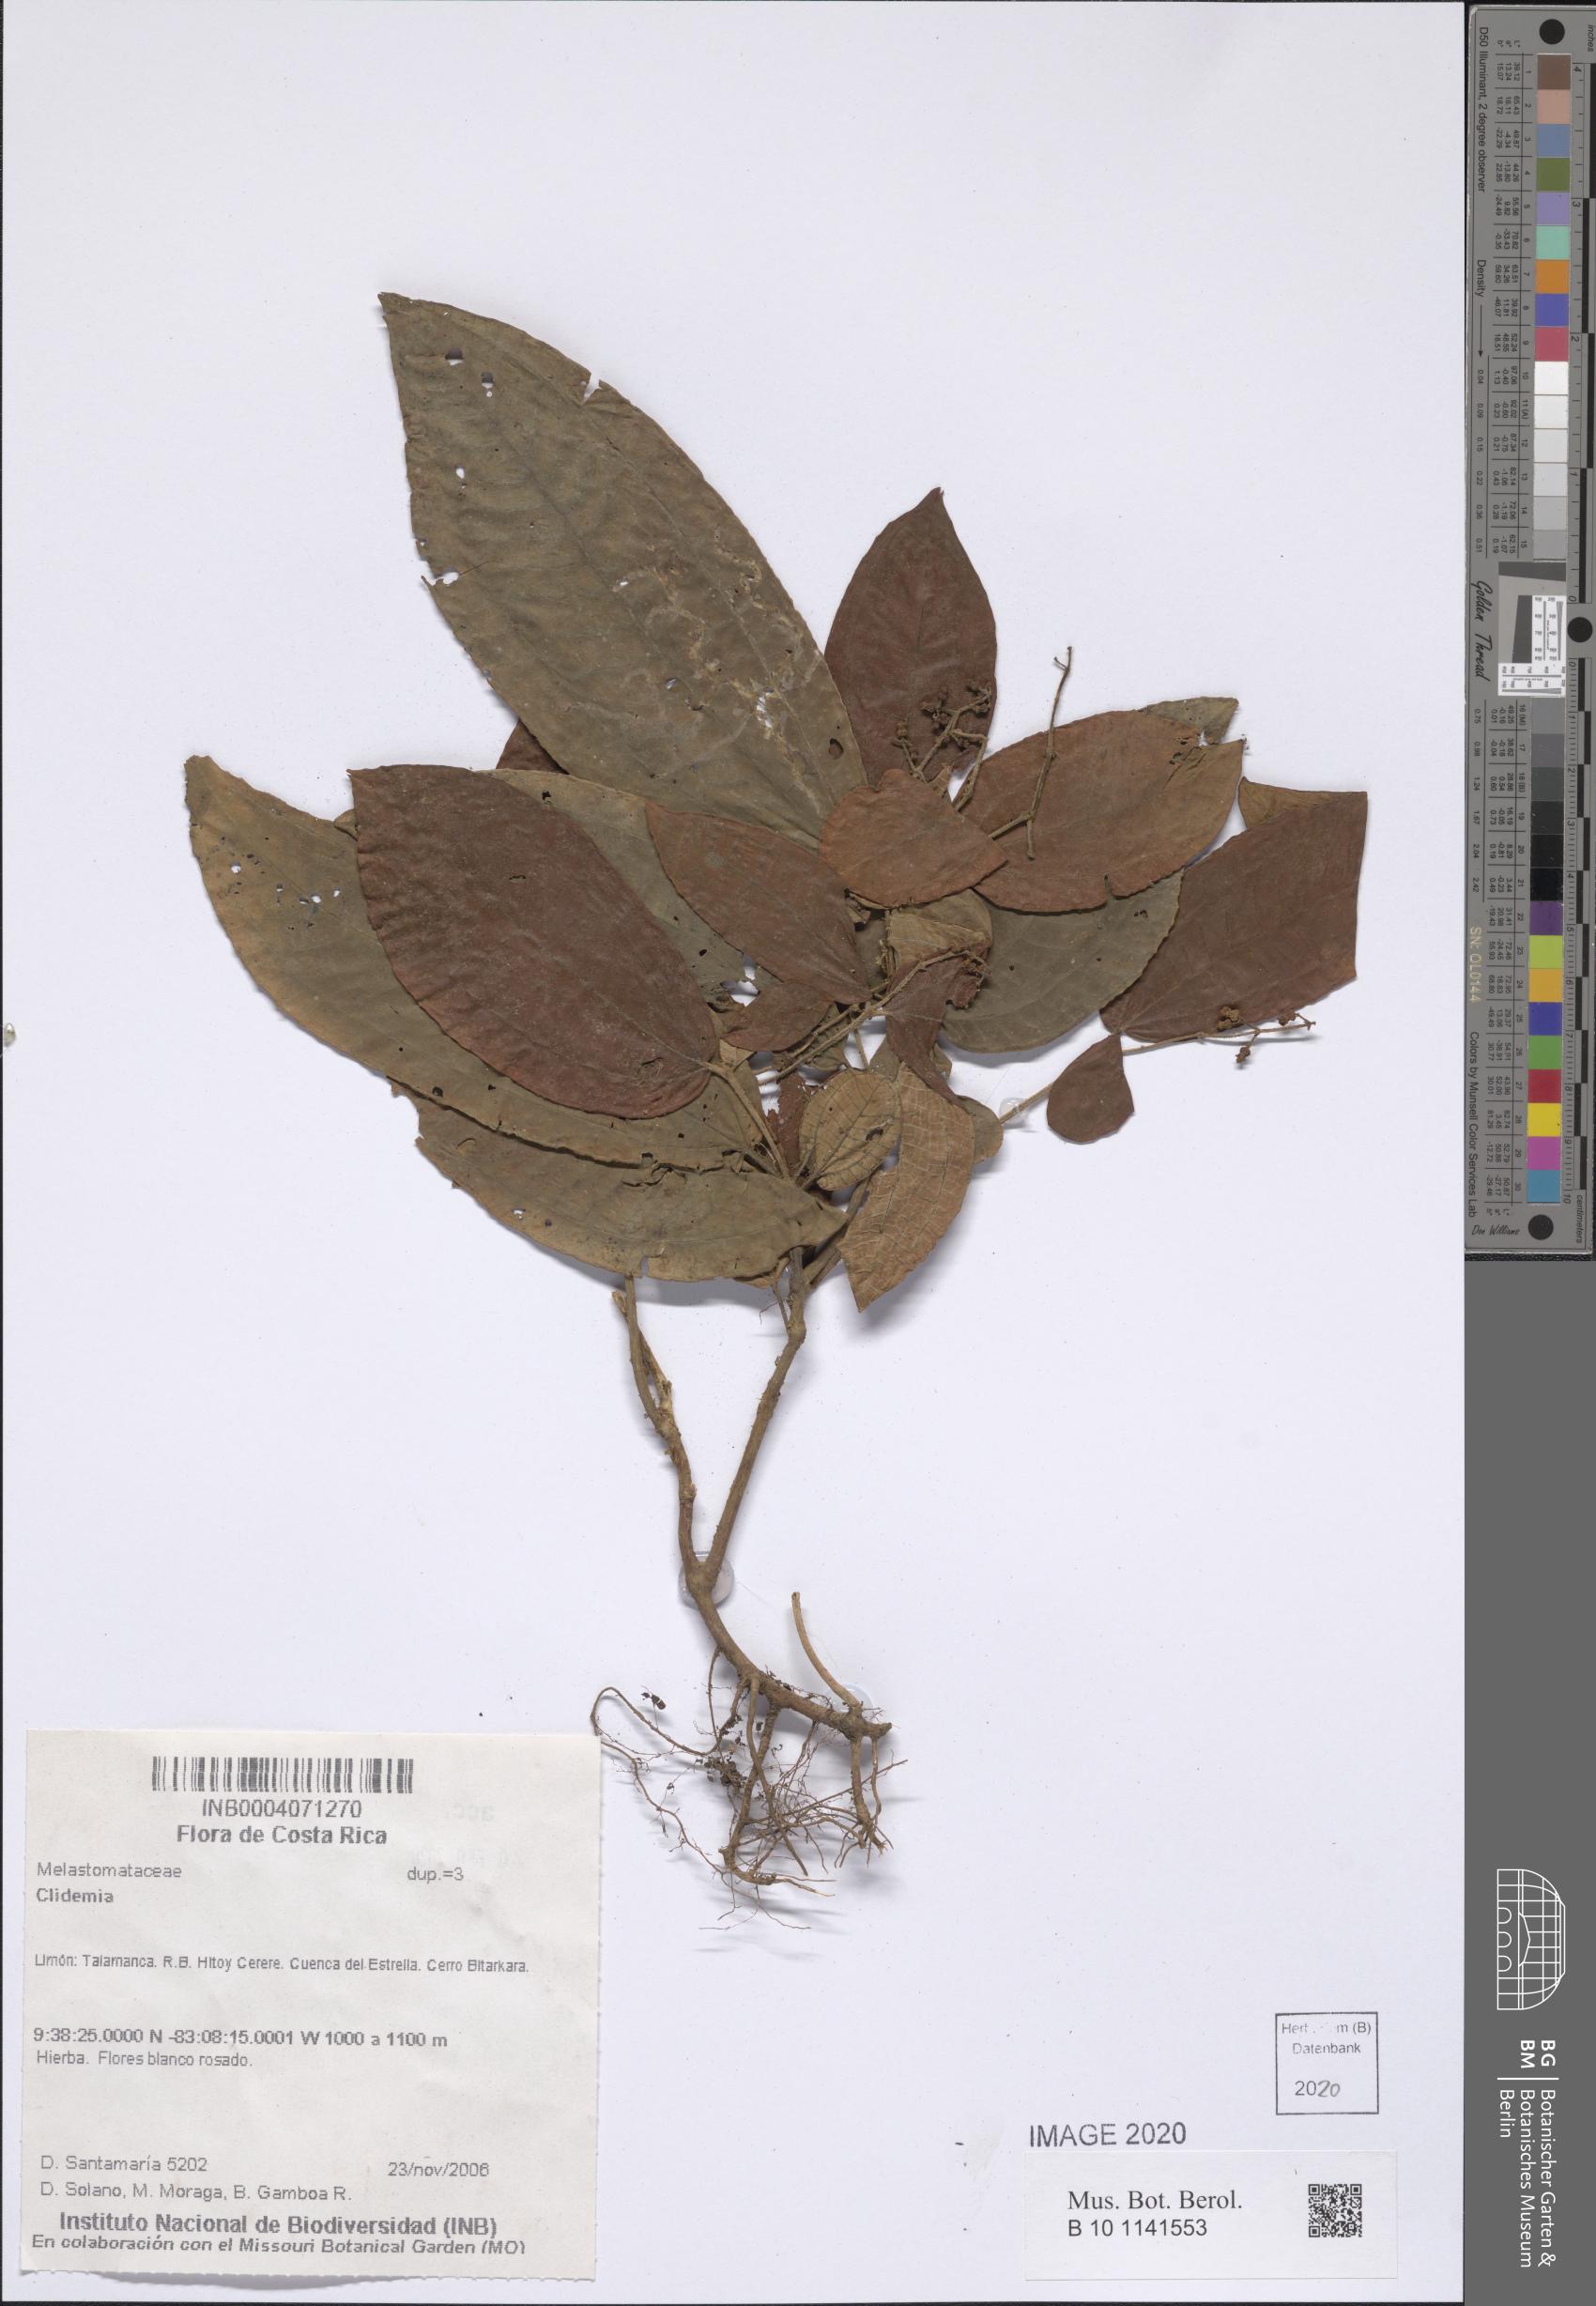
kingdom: Plantae
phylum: Tracheophyta
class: Magnoliopsida
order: Myrtales
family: Melastomataceae
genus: Miconia
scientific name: Miconia
